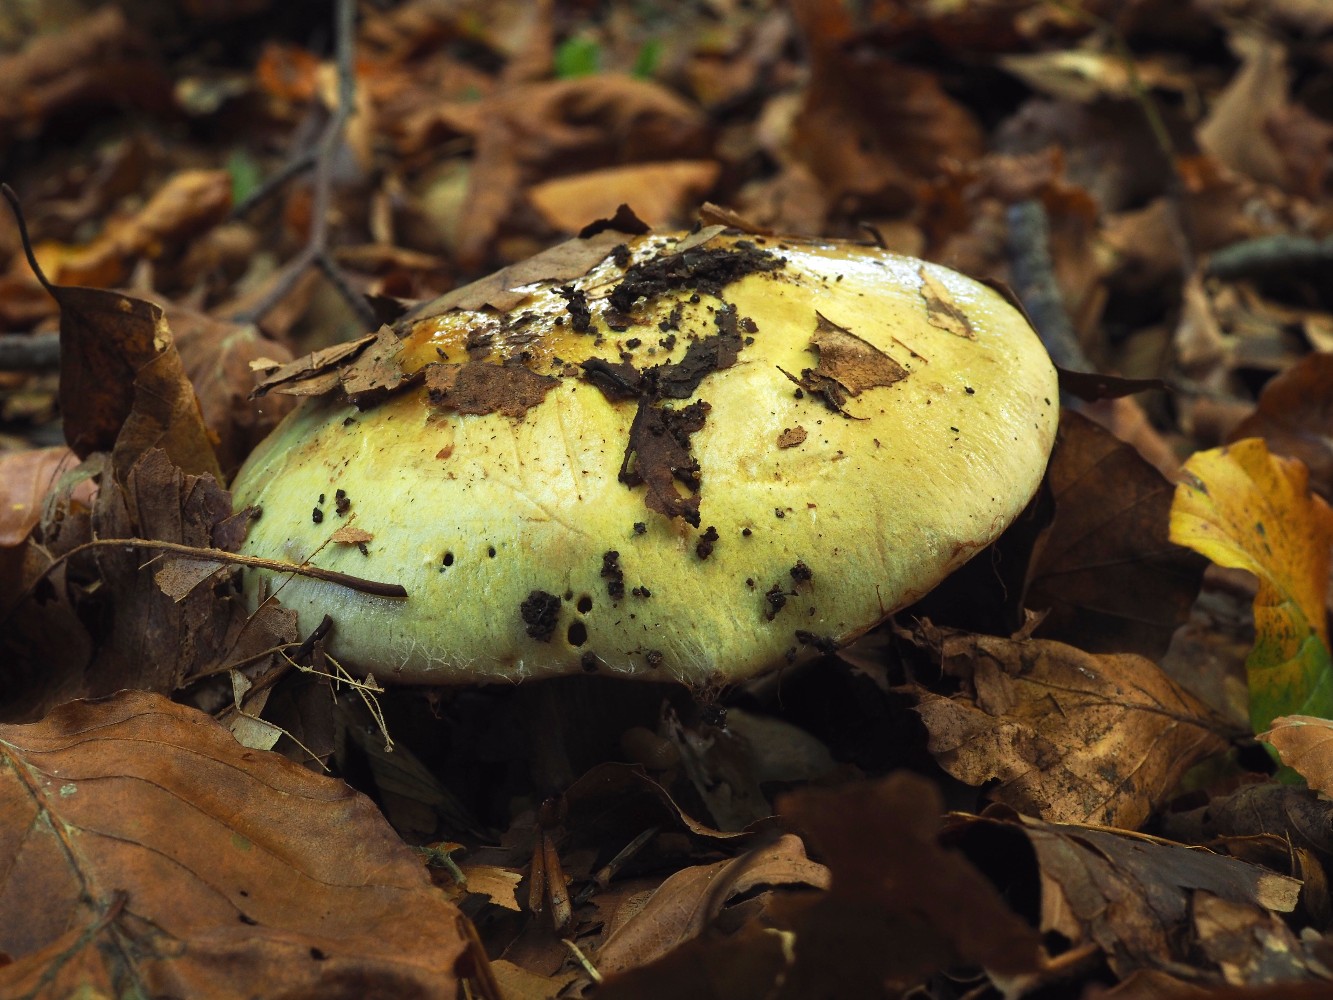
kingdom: Fungi
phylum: Basidiomycota
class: Agaricomycetes
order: Agaricales
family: Cortinariaceae
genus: Cortinarius
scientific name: Cortinarius anserinus
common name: bøge-slørhat
